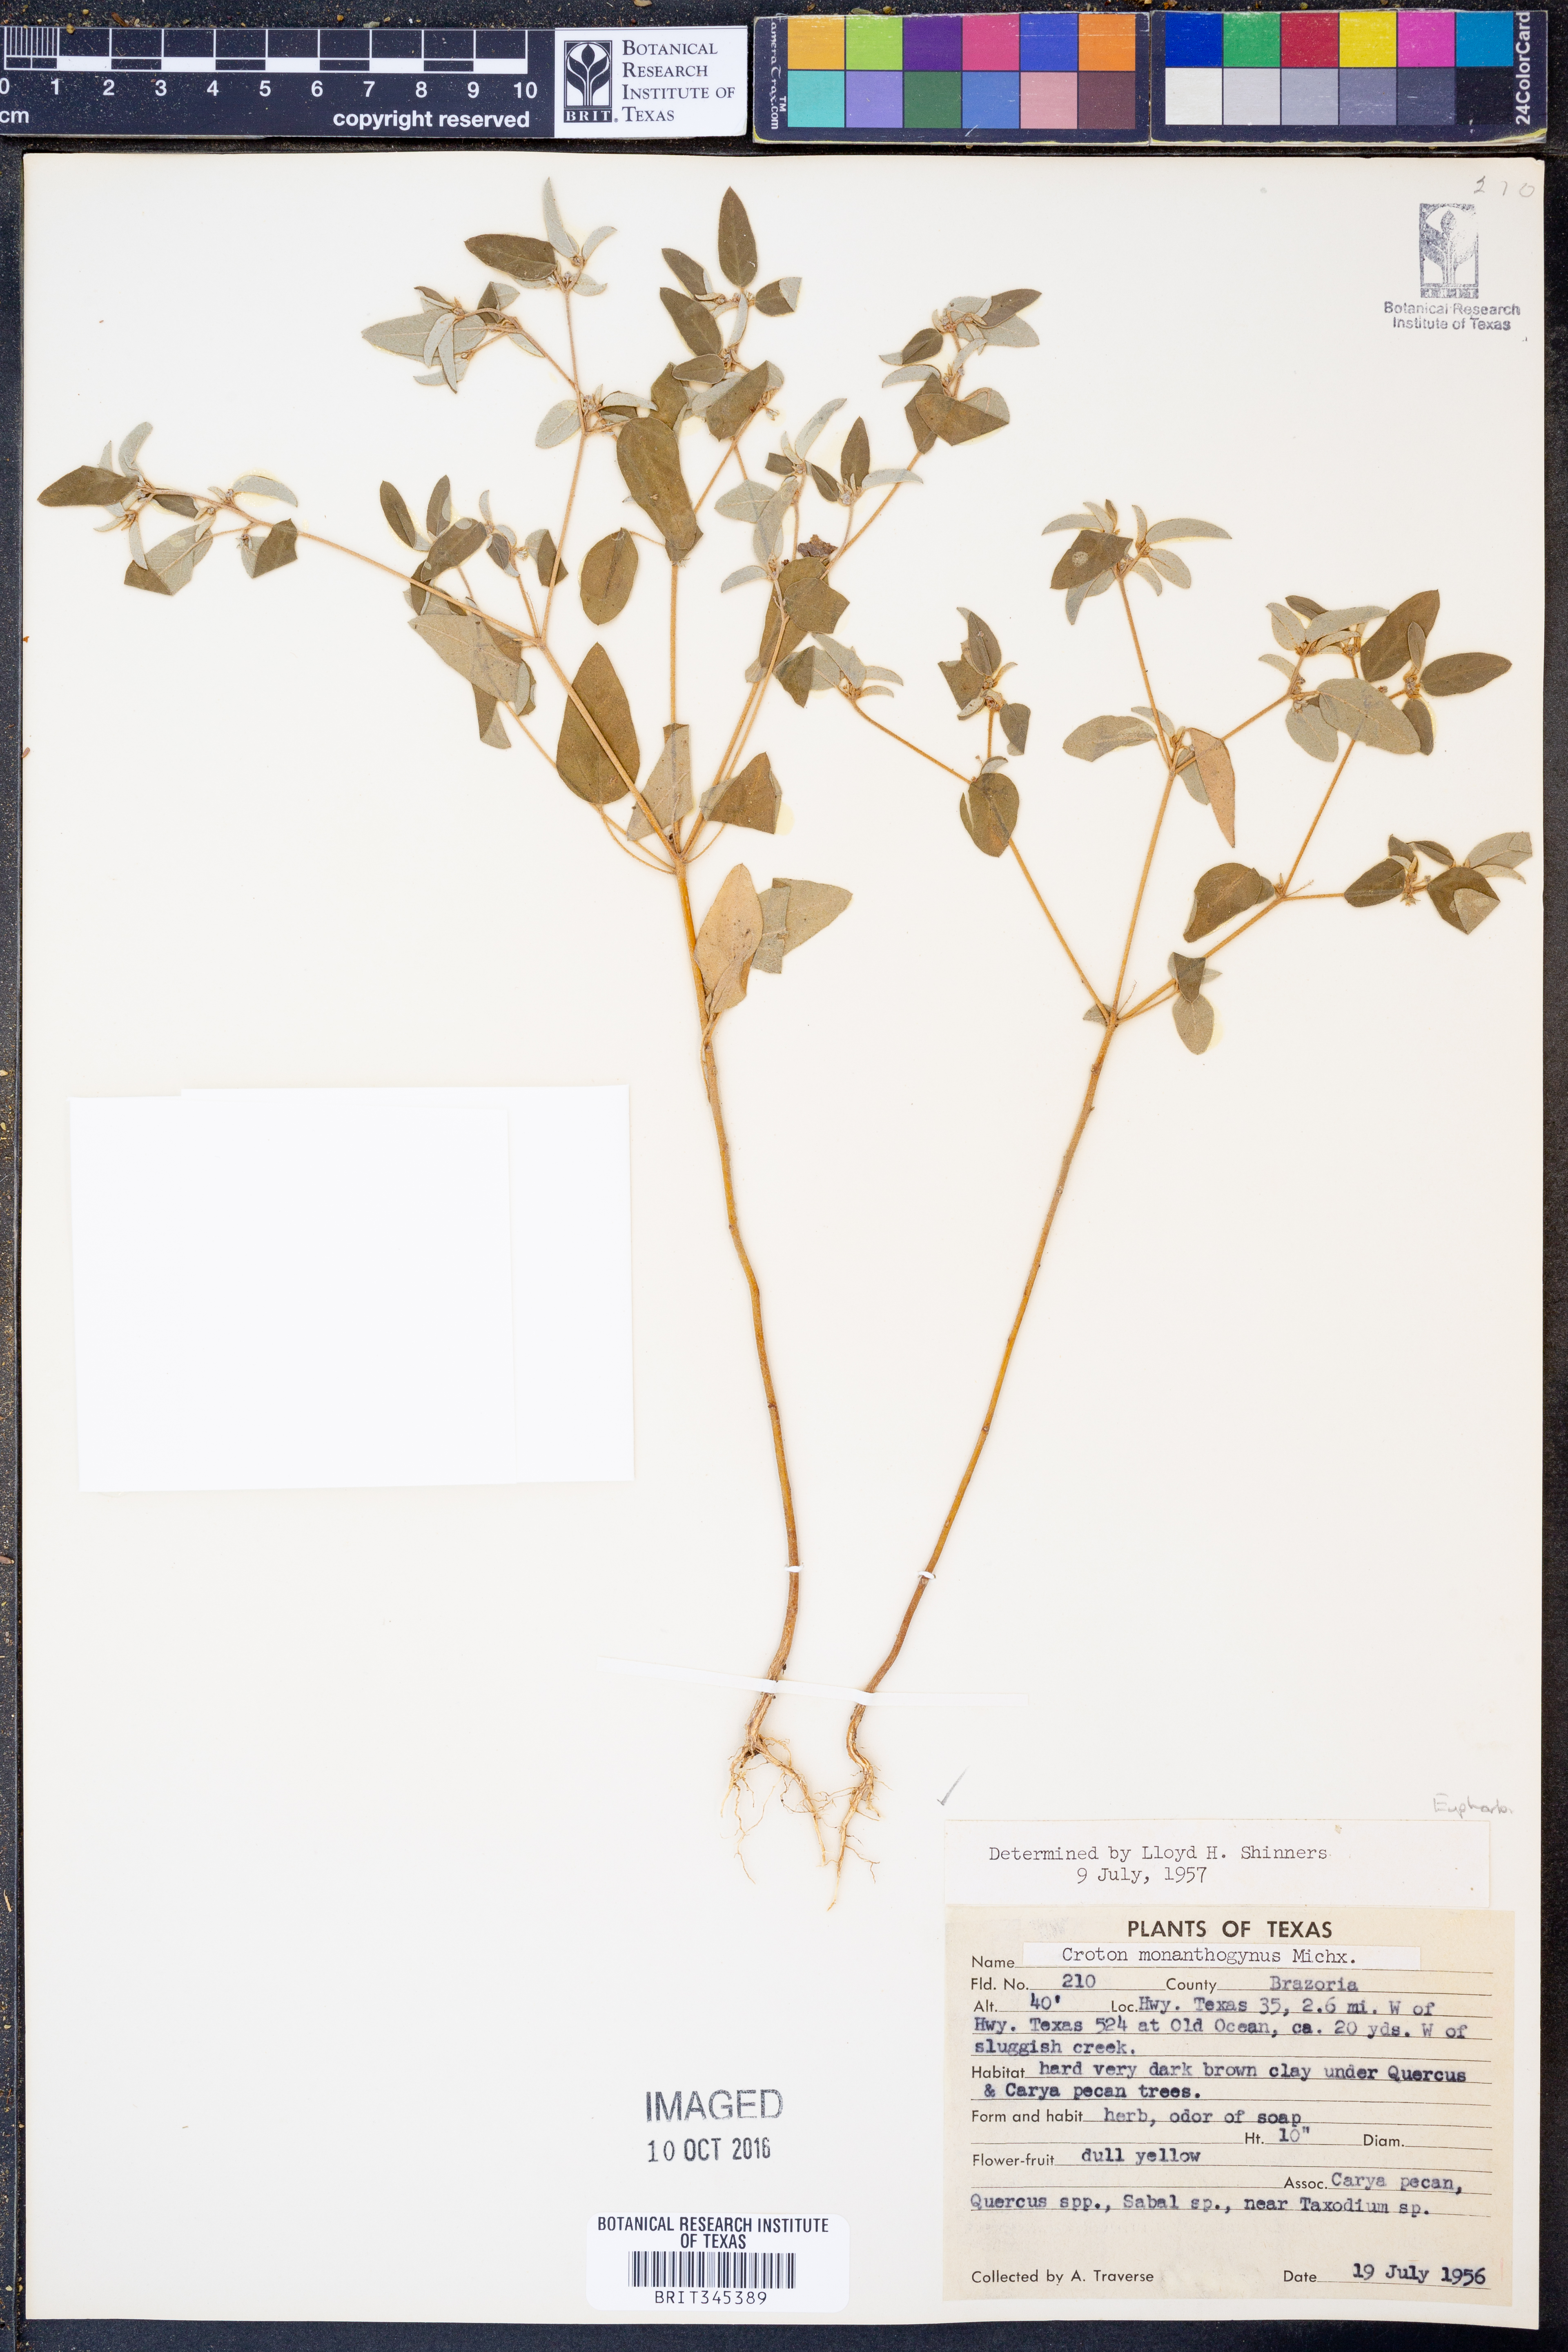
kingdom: Plantae
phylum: Tracheophyta
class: Magnoliopsida
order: Malpighiales
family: Euphorbiaceae
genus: Croton
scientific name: Croton monanthogynus
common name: One-seed croton
